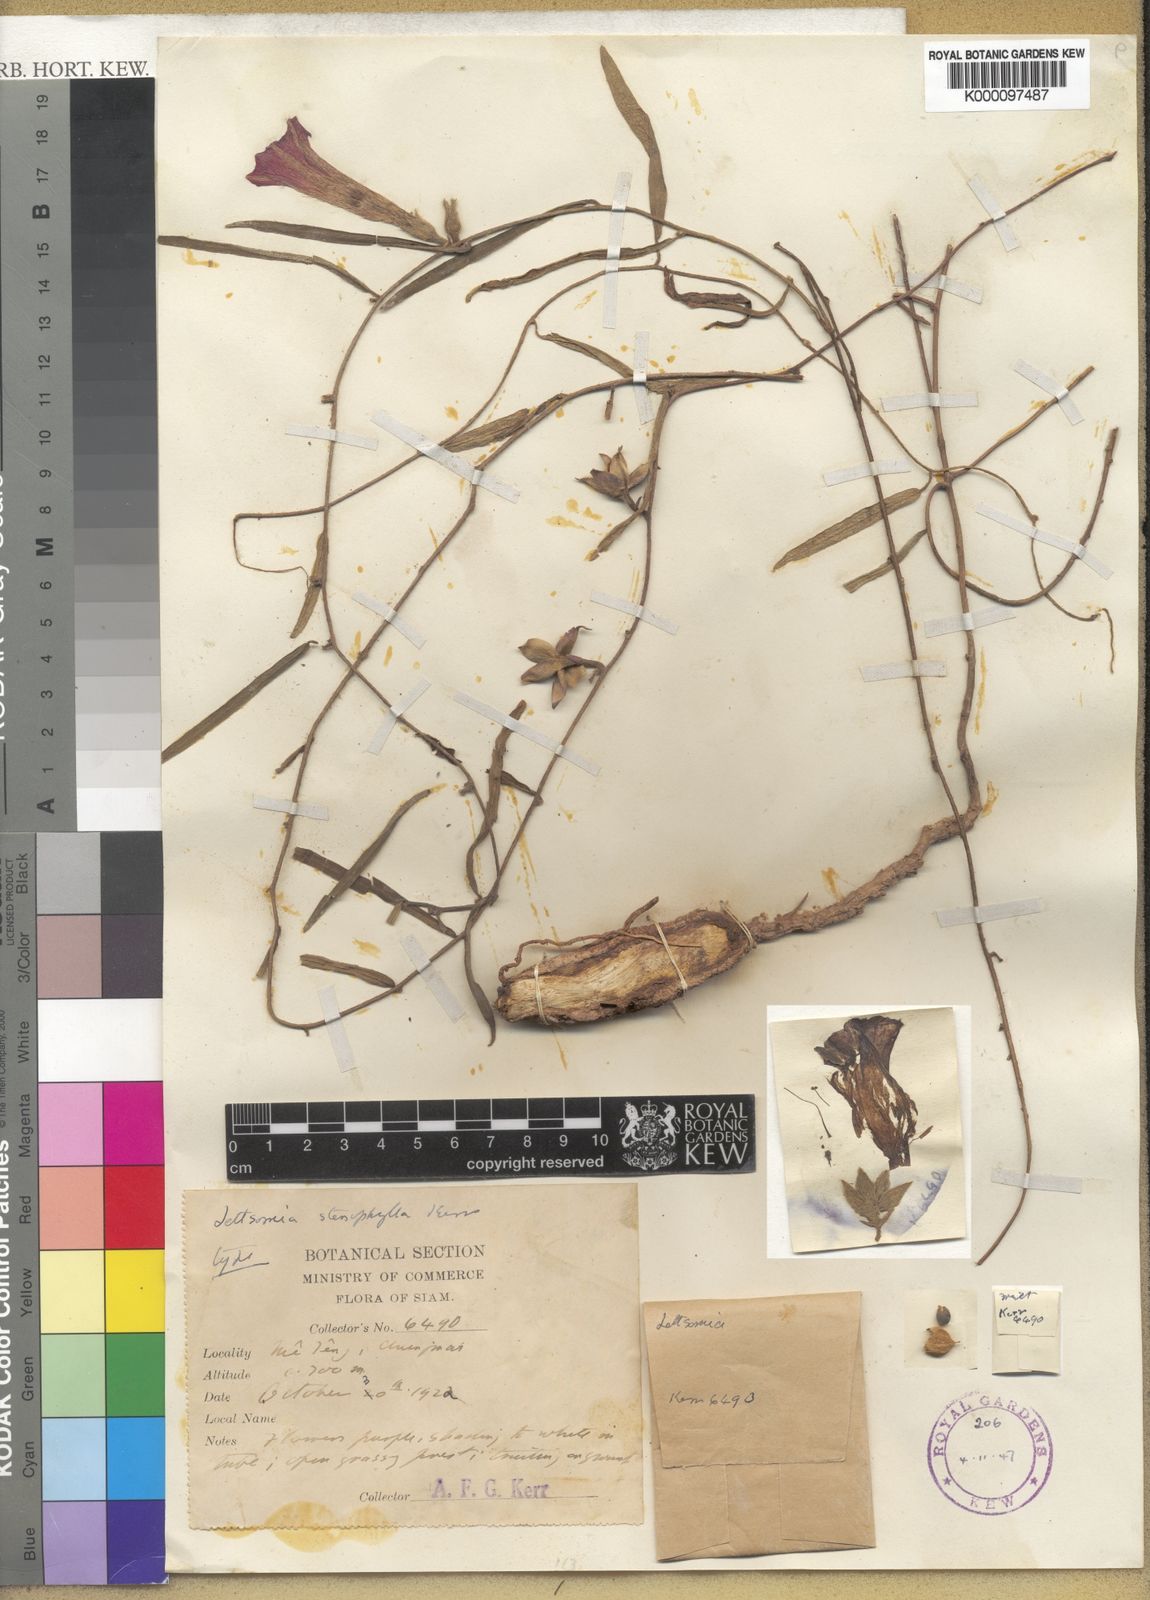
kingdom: Plantae
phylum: Tracheophyta
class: Magnoliopsida
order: Solanales
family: Convolvulaceae
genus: Argyreia
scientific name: Argyreia popahensis
